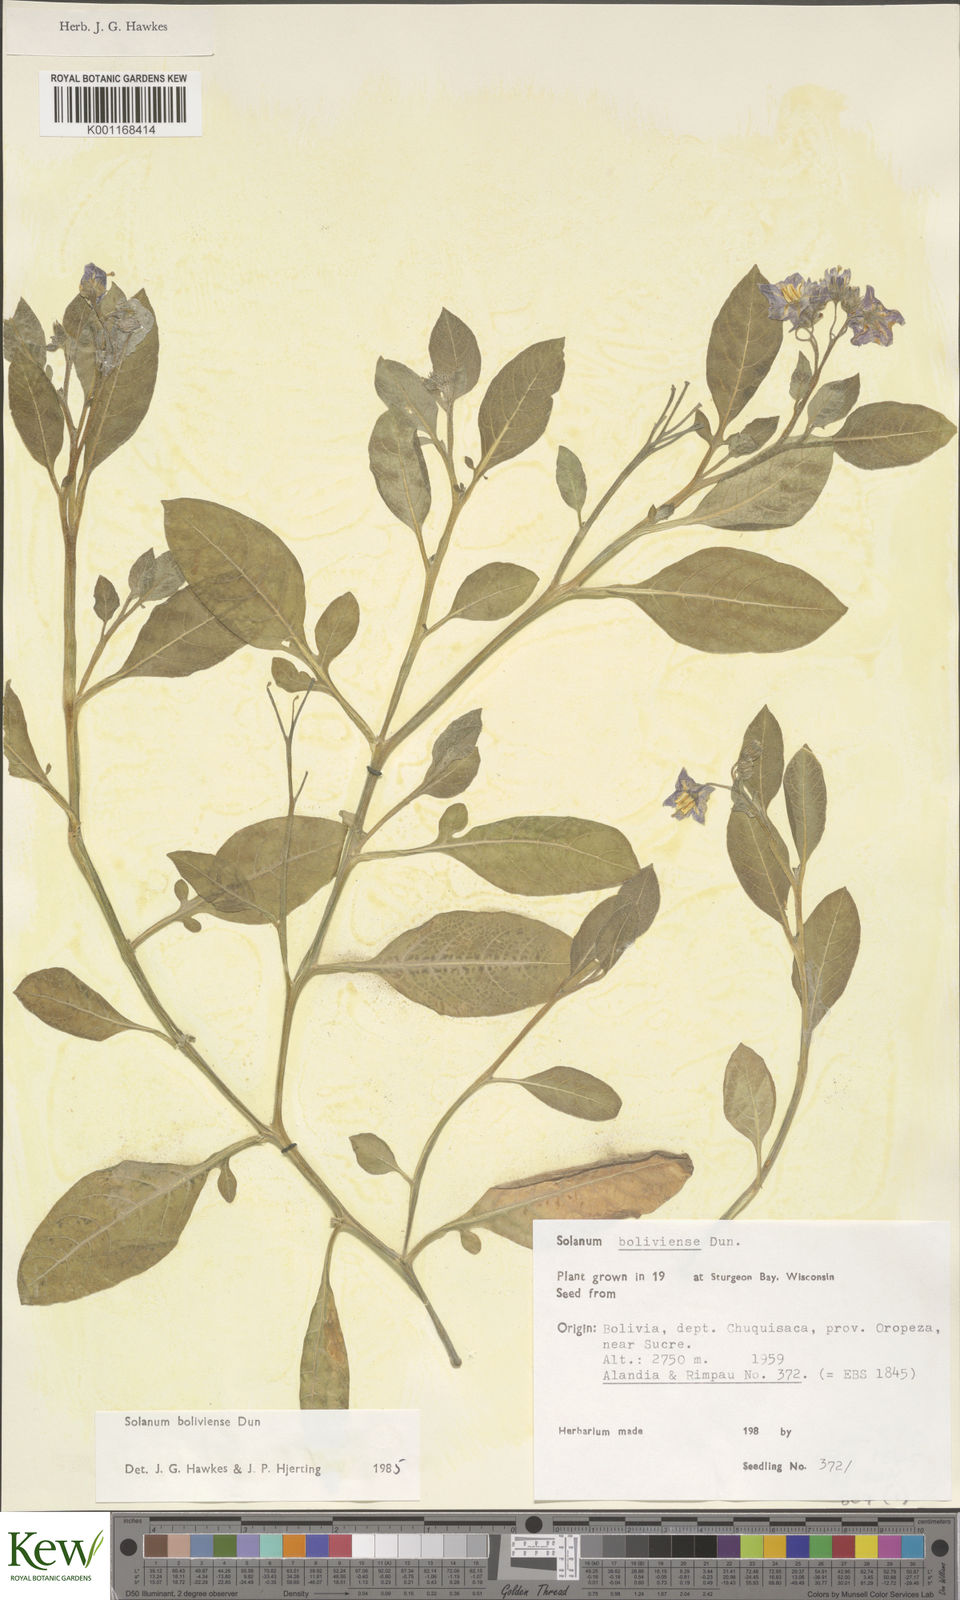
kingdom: Plantae
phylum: Tracheophyta
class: Magnoliopsida
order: Solanales
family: Solanaceae
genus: Solanum
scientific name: Solanum boliviense
